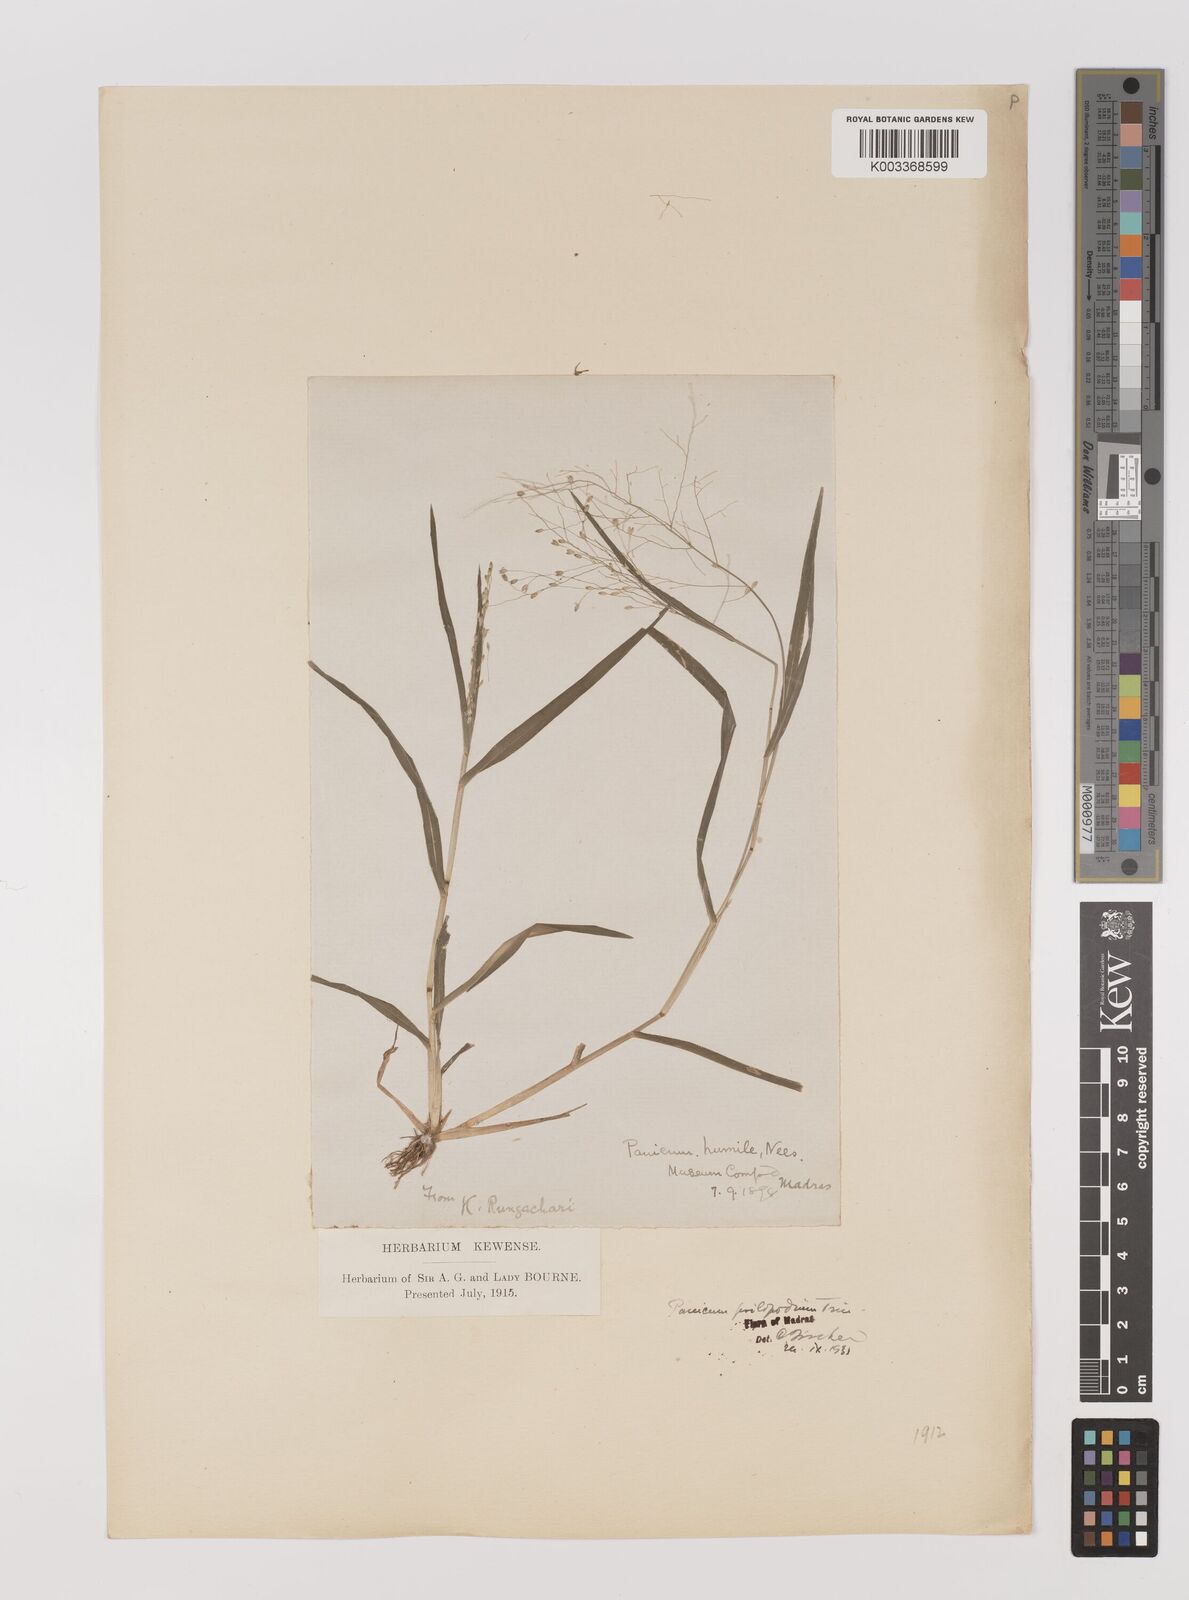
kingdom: Plantae
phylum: Tracheophyta
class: Liliopsida
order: Poales
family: Poaceae
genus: Panicum
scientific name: Panicum sumatrense
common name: Little millet
